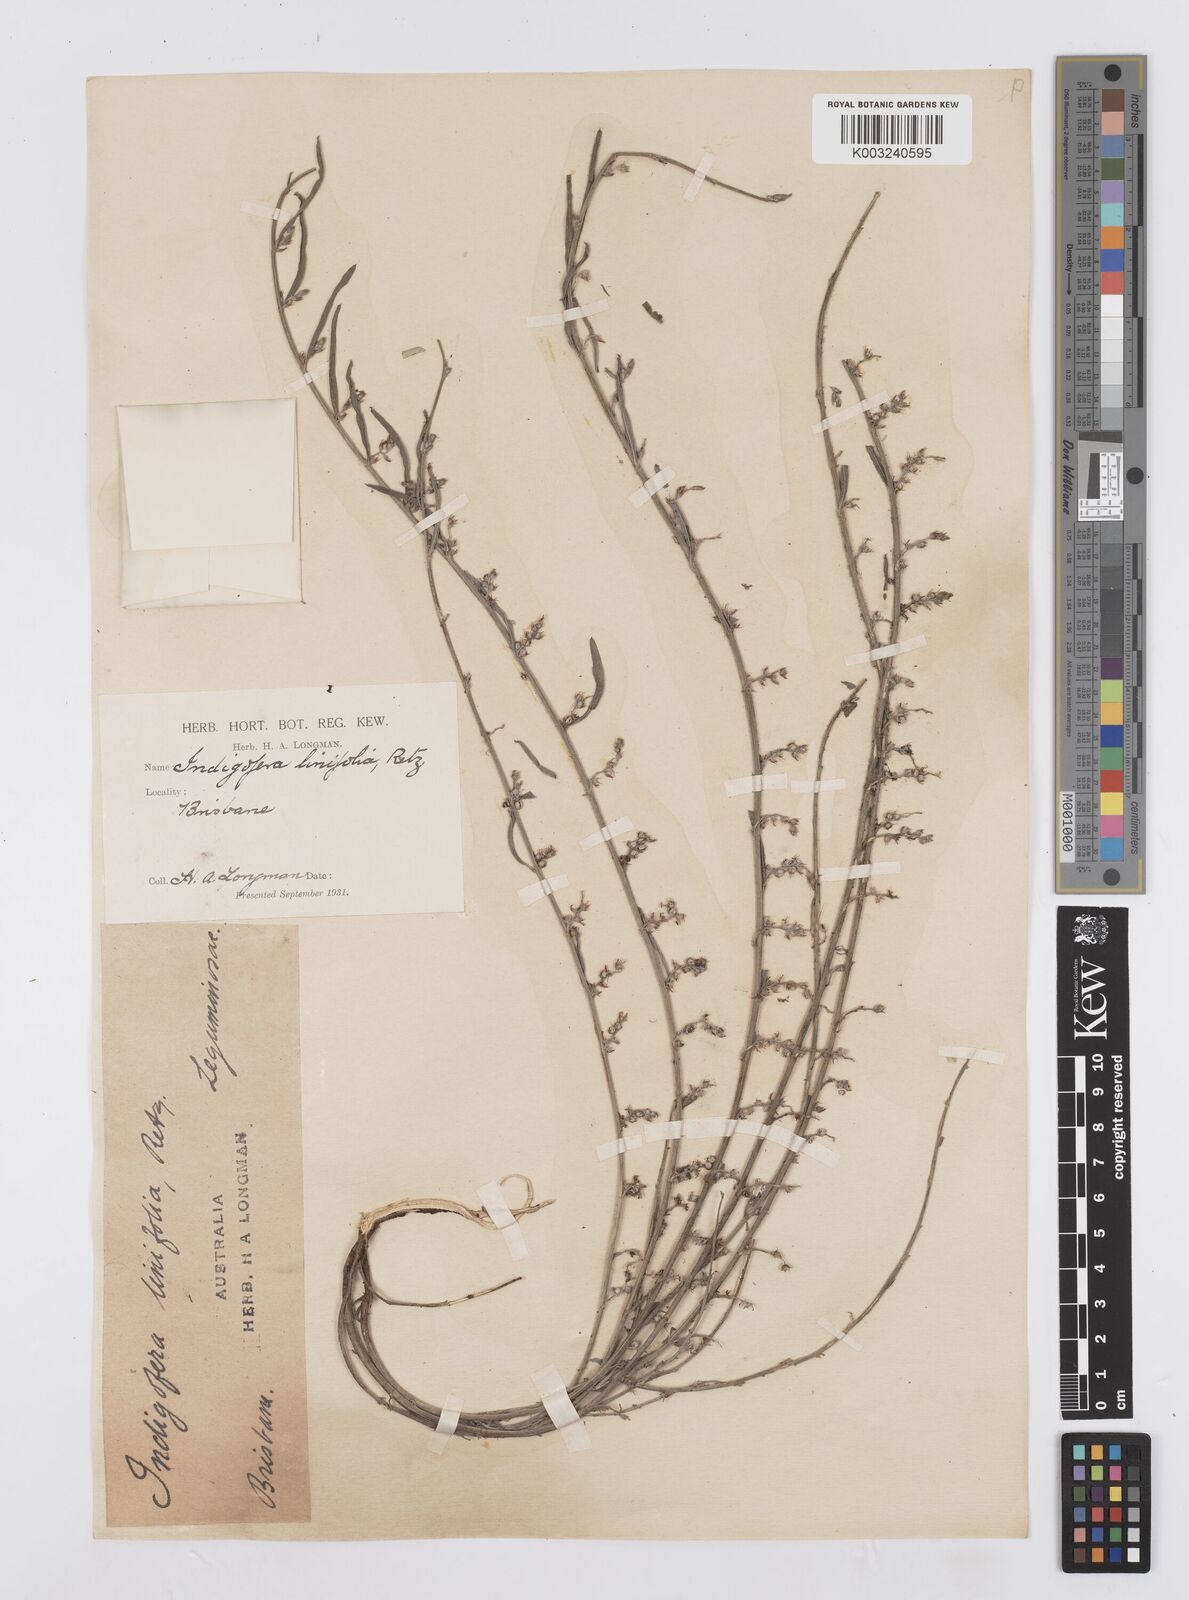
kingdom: Plantae
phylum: Tracheophyta
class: Magnoliopsida
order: Fabales
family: Fabaceae
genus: Indigofera
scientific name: Indigofera linifolia
